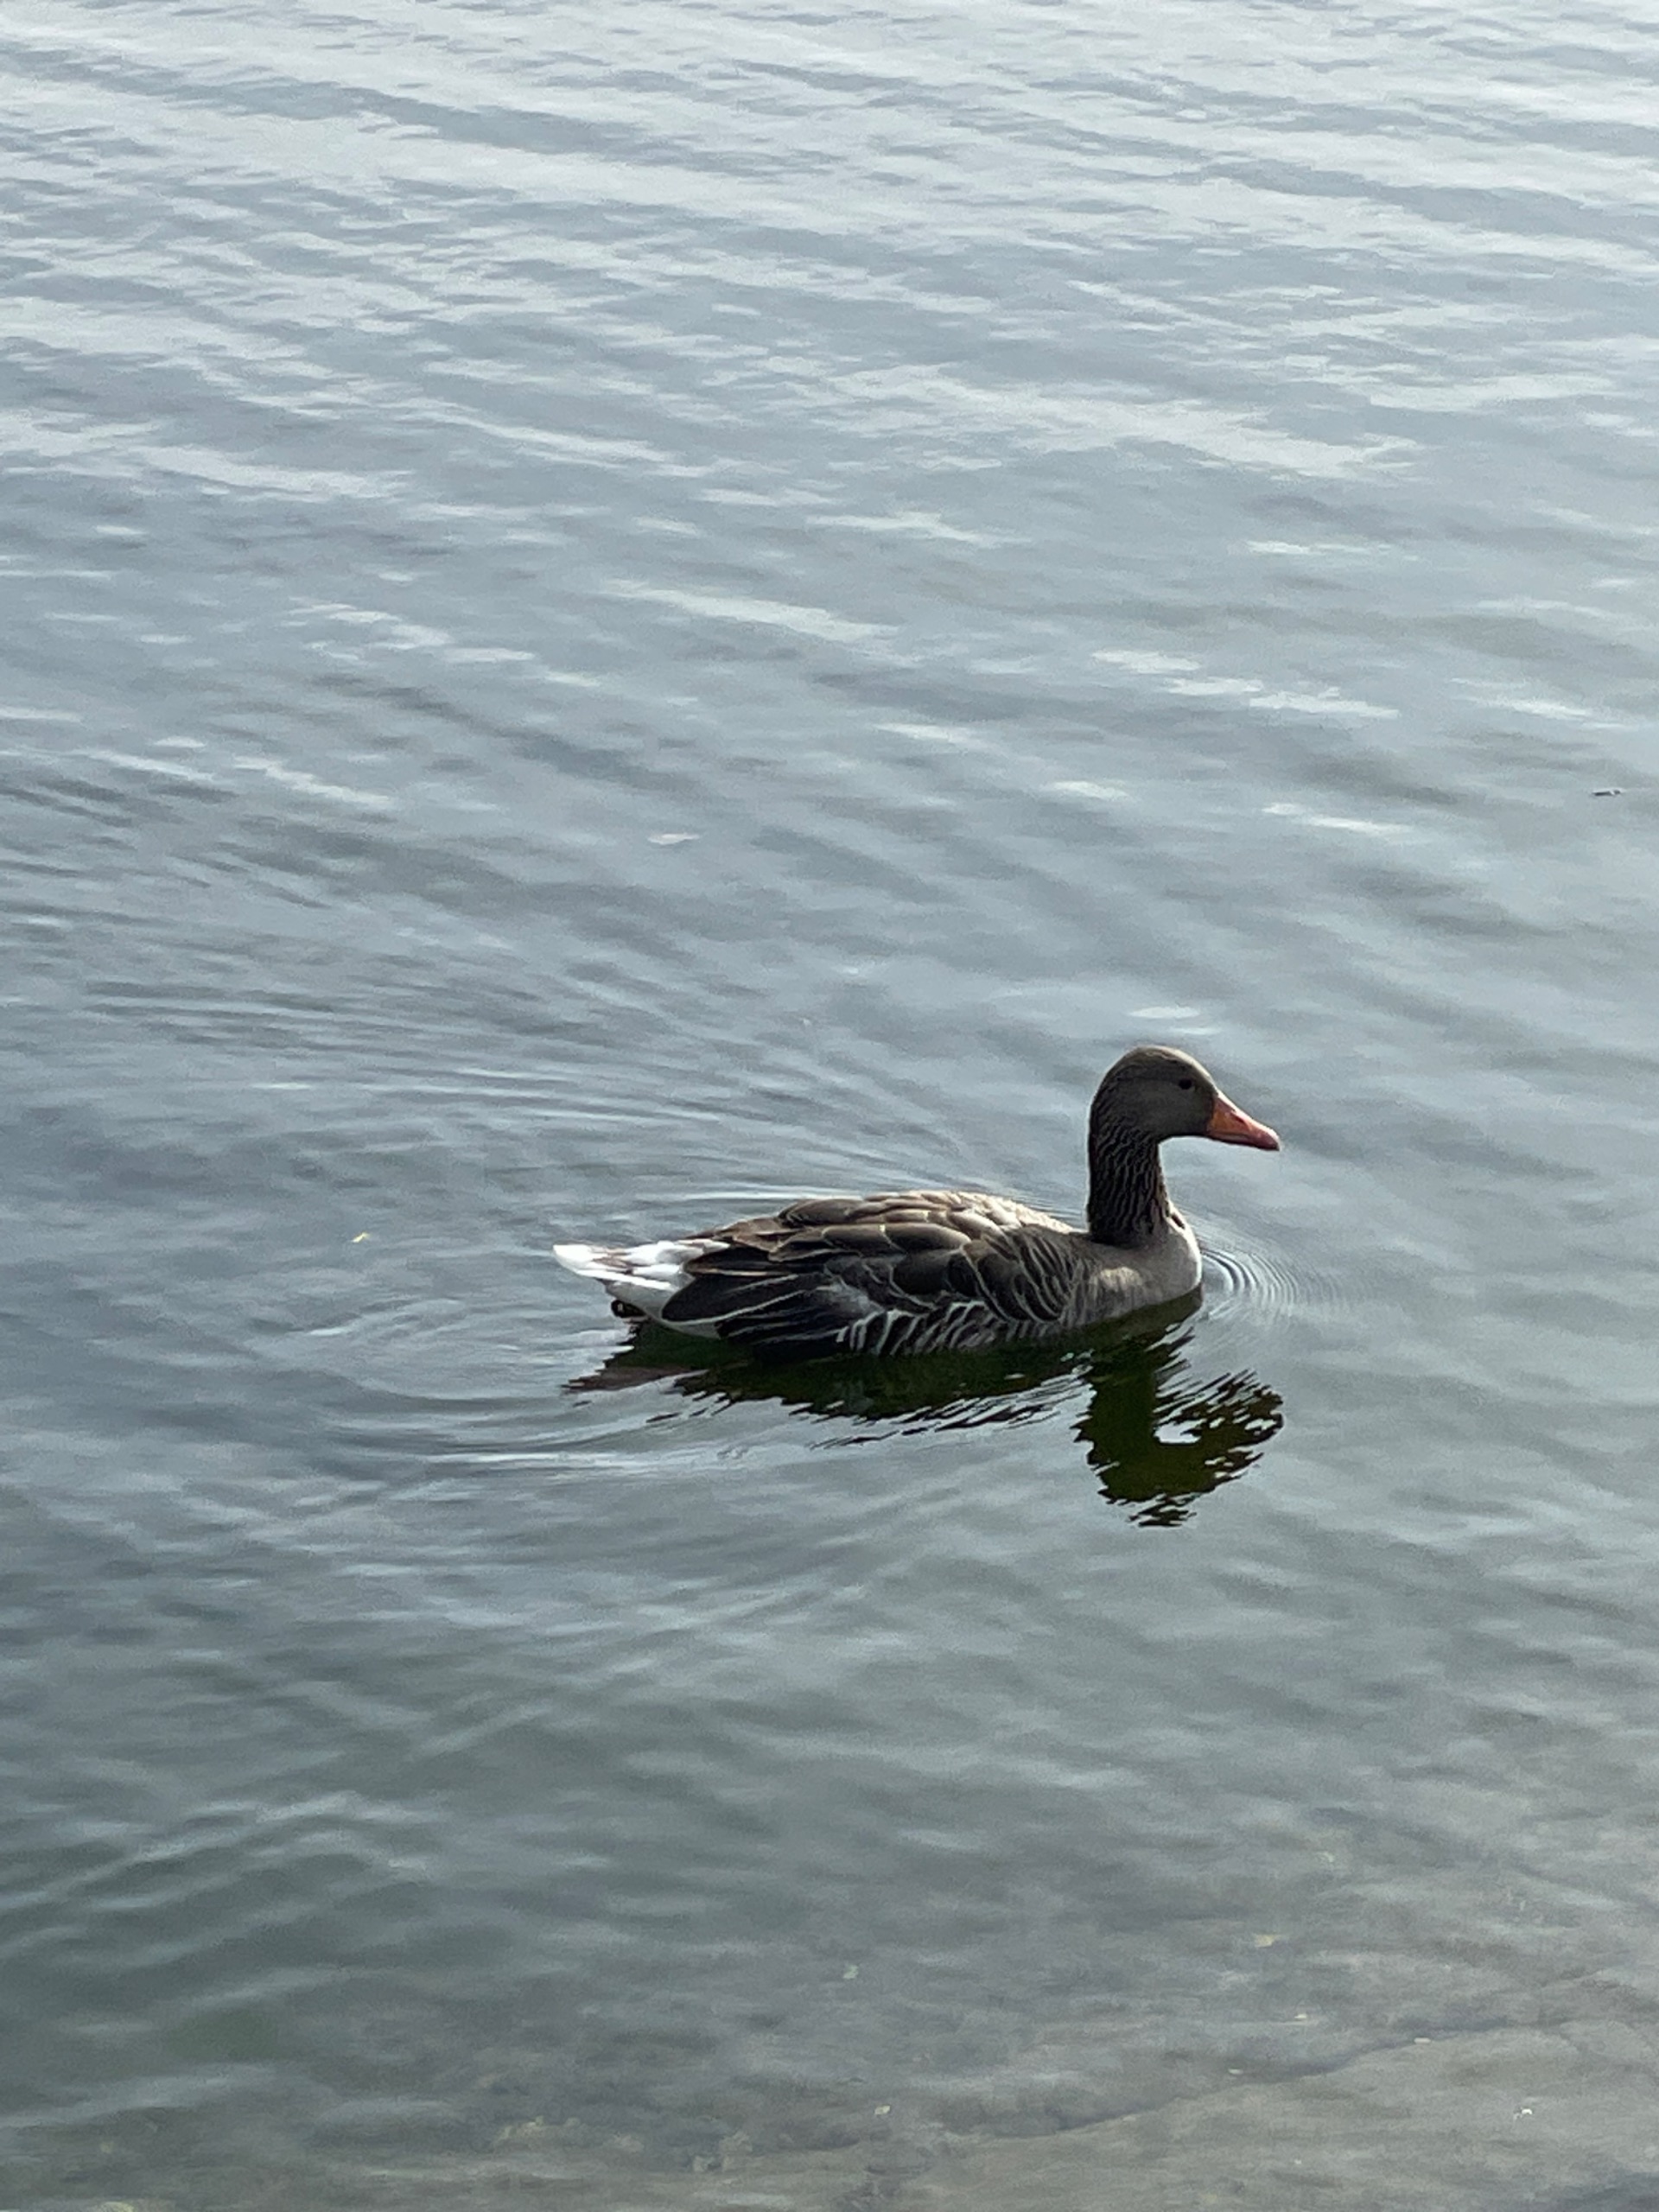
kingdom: Animalia
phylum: Chordata
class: Aves
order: Anseriformes
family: Anatidae
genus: Anser
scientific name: Anser anser
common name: Grågås
